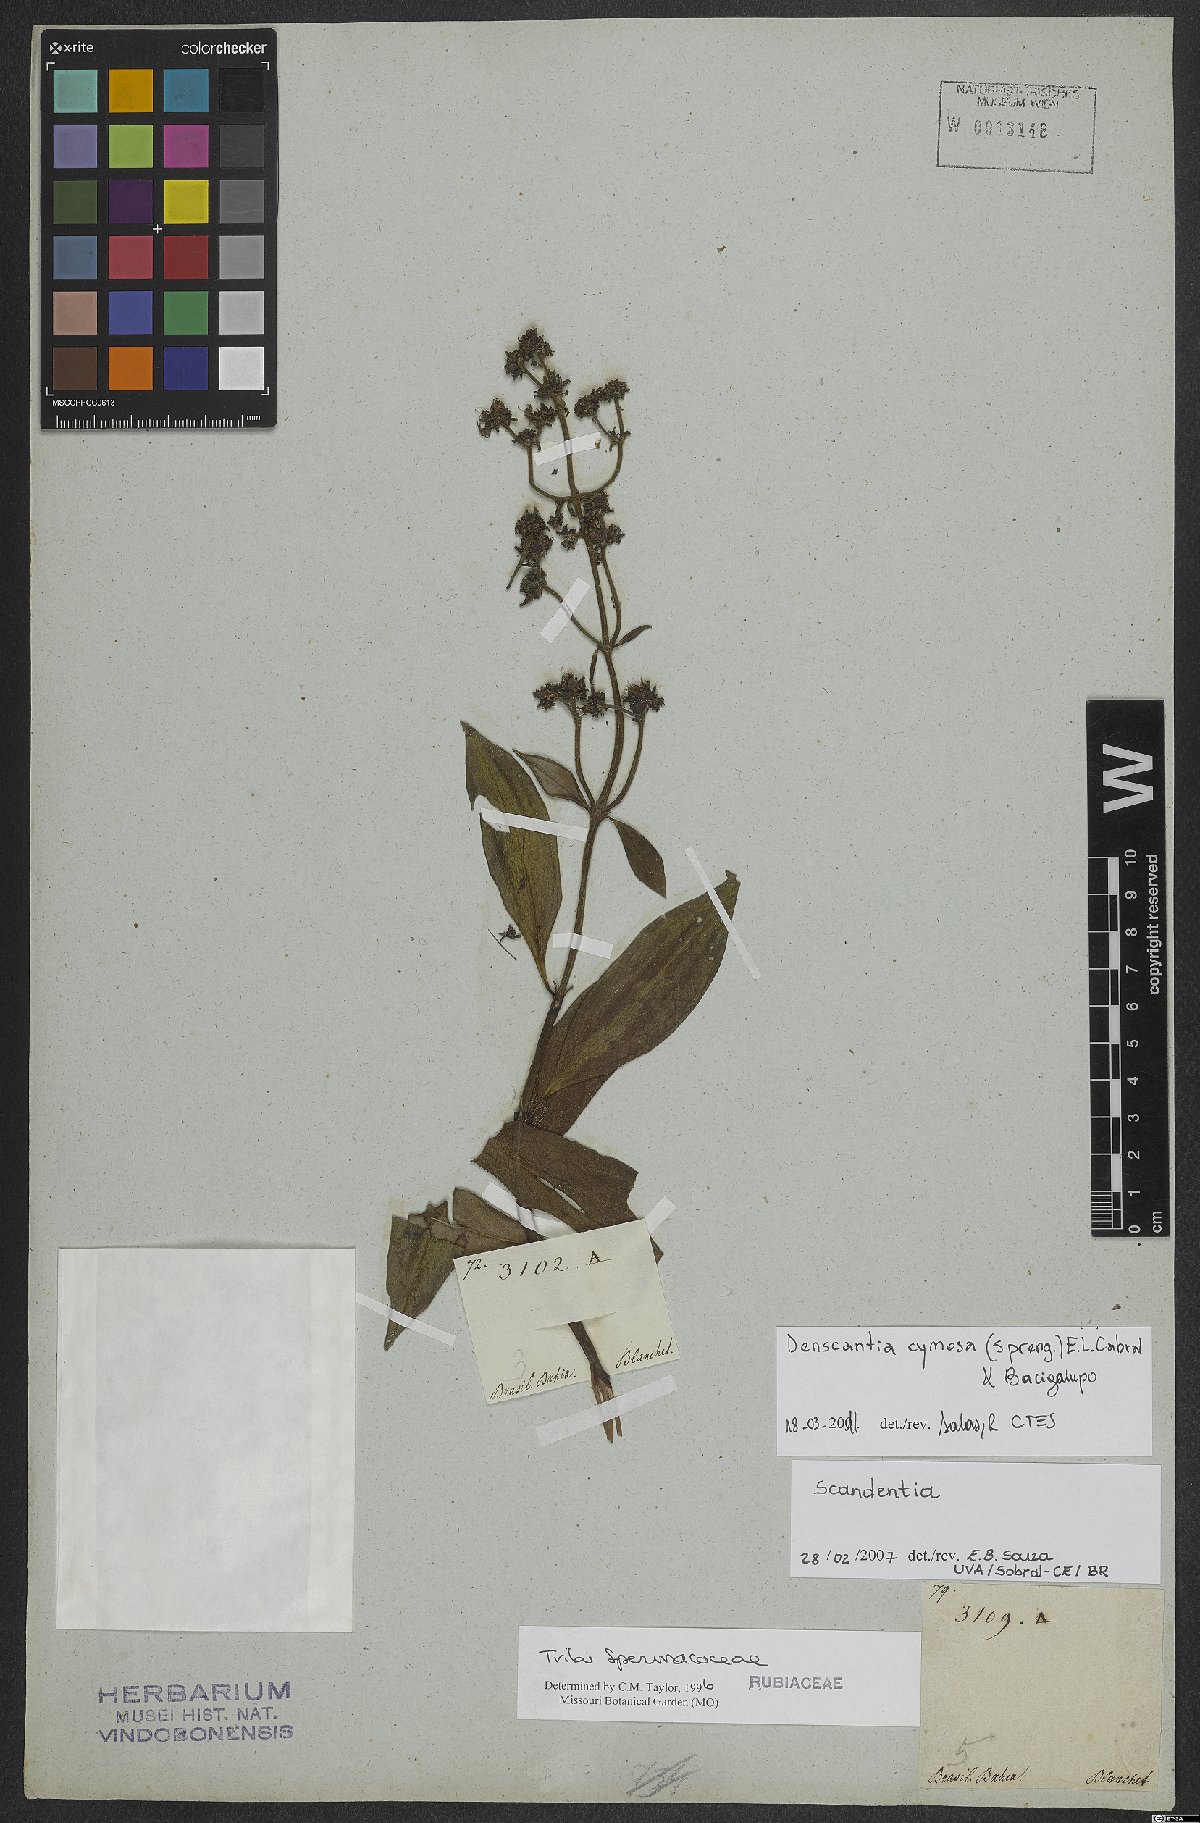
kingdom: Plantae
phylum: Tracheophyta
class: Magnoliopsida
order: Gentianales
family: Rubiaceae
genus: Denscantia
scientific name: Denscantia cymosa
